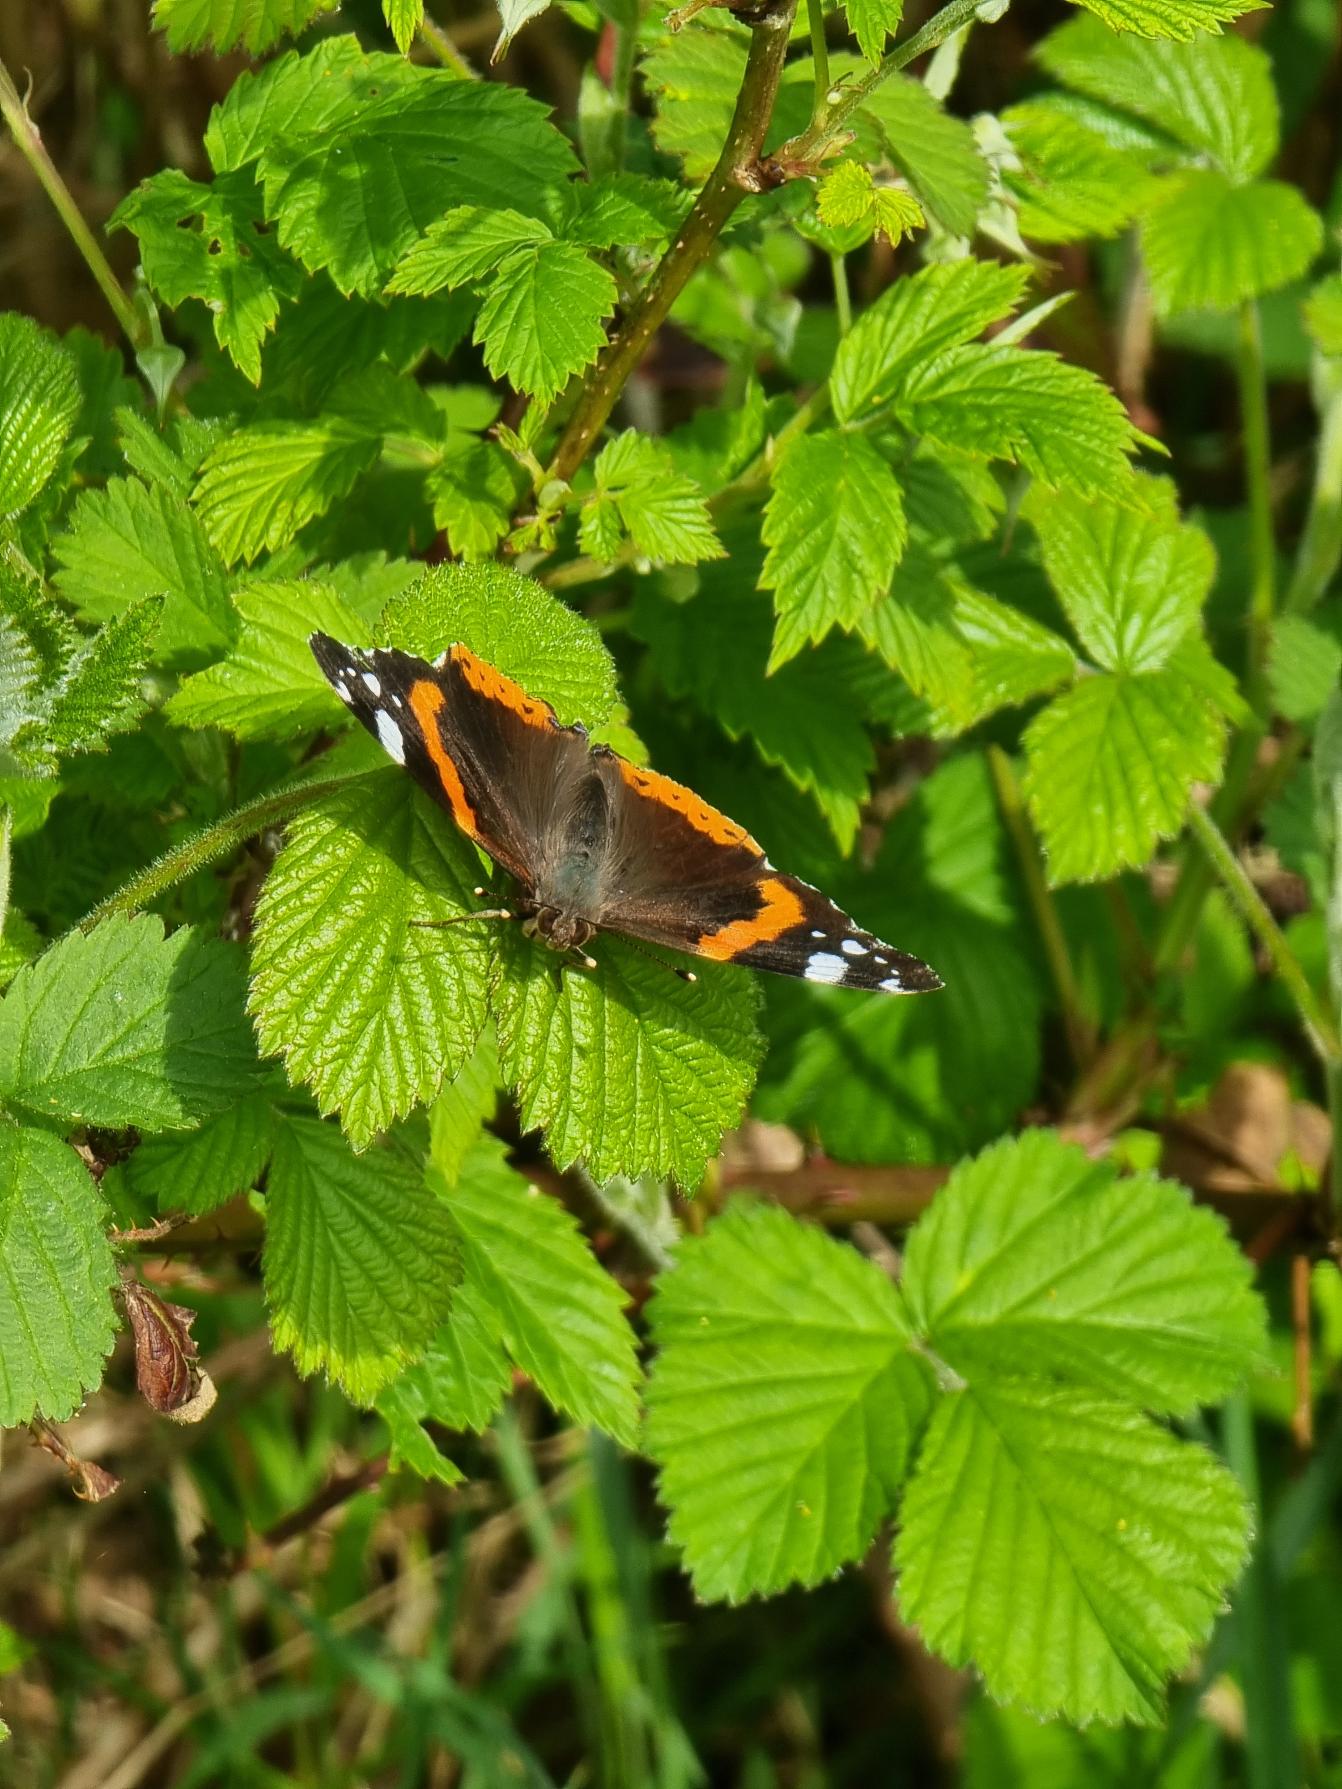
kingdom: Animalia
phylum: Arthropoda
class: Insecta
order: Lepidoptera
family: Nymphalidae
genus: Vanessa
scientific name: Vanessa atalanta
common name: Admiral
